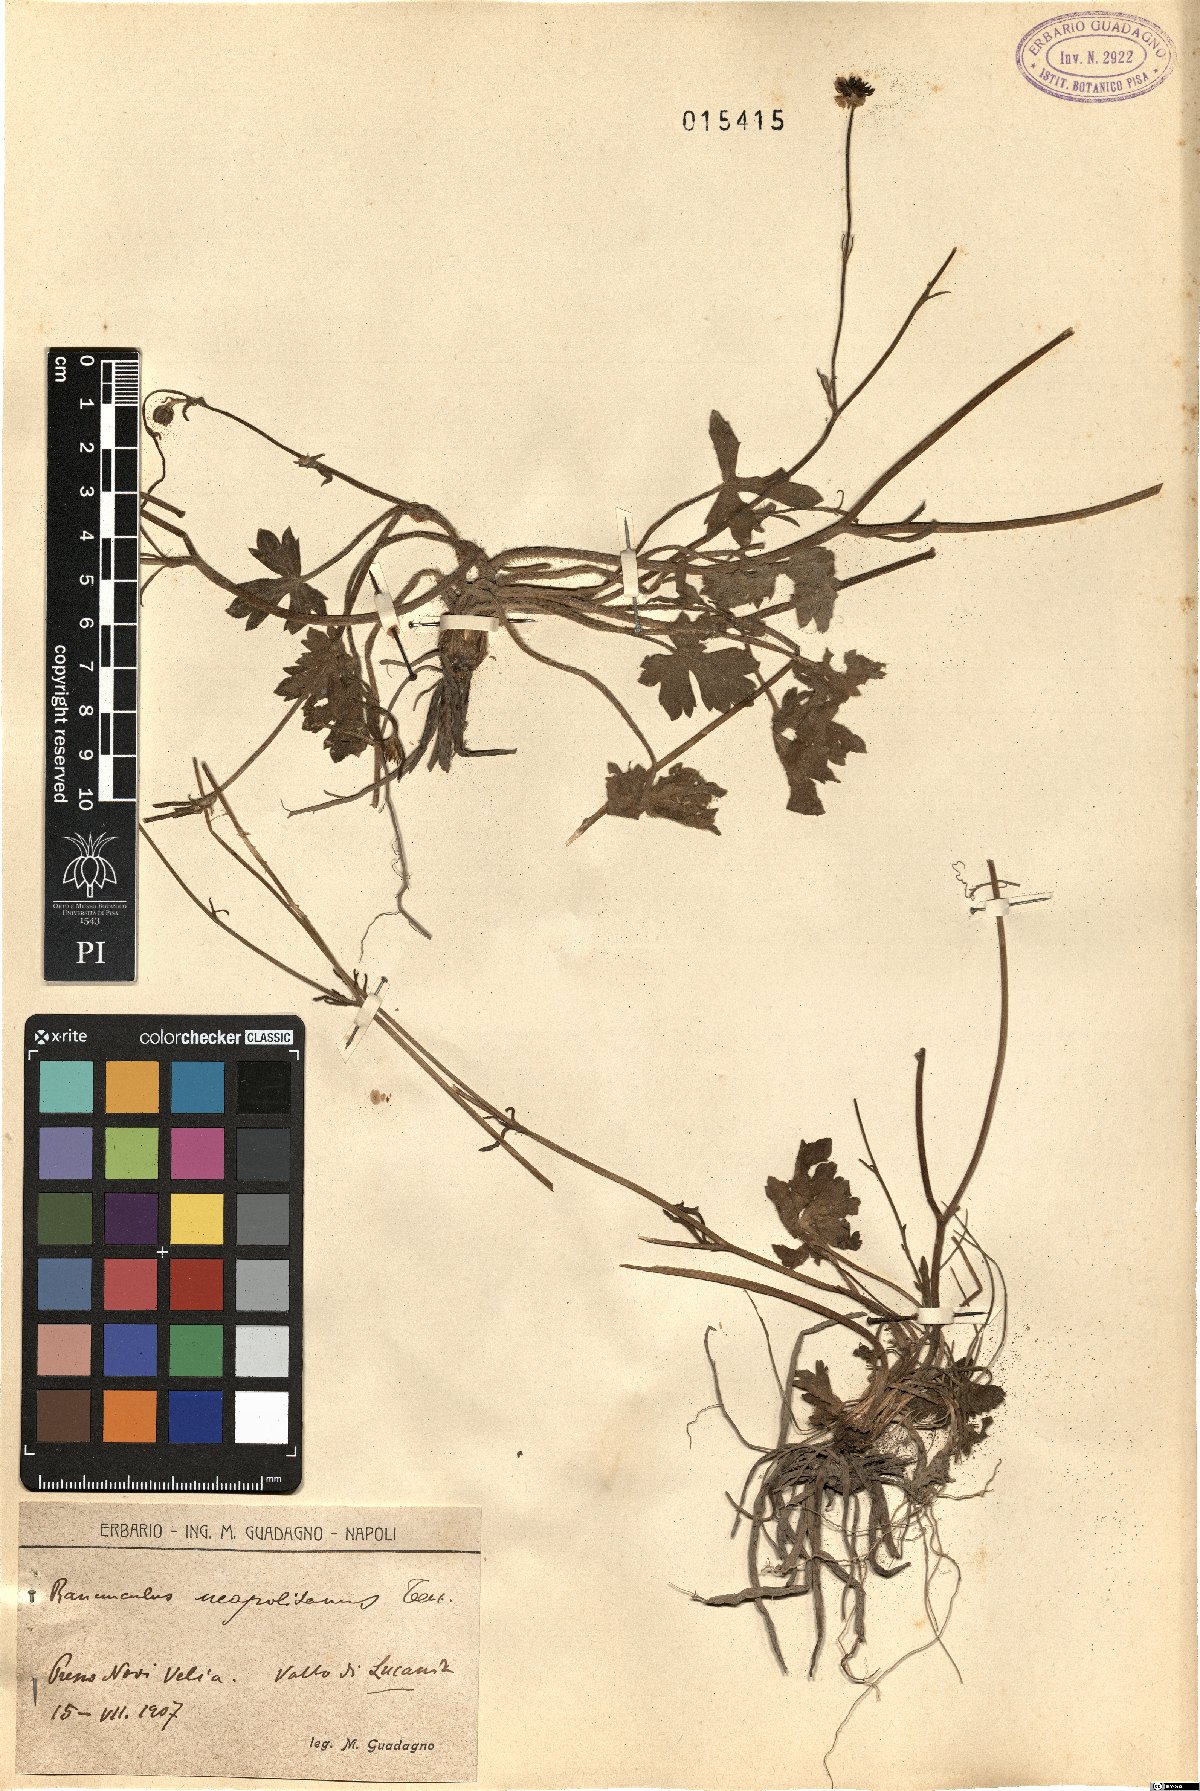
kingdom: Plantae
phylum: Tracheophyta
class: Magnoliopsida
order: Ranunculales
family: Ranunculaceae
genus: Ranunculus
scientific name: Ranunculus neapolitanus
